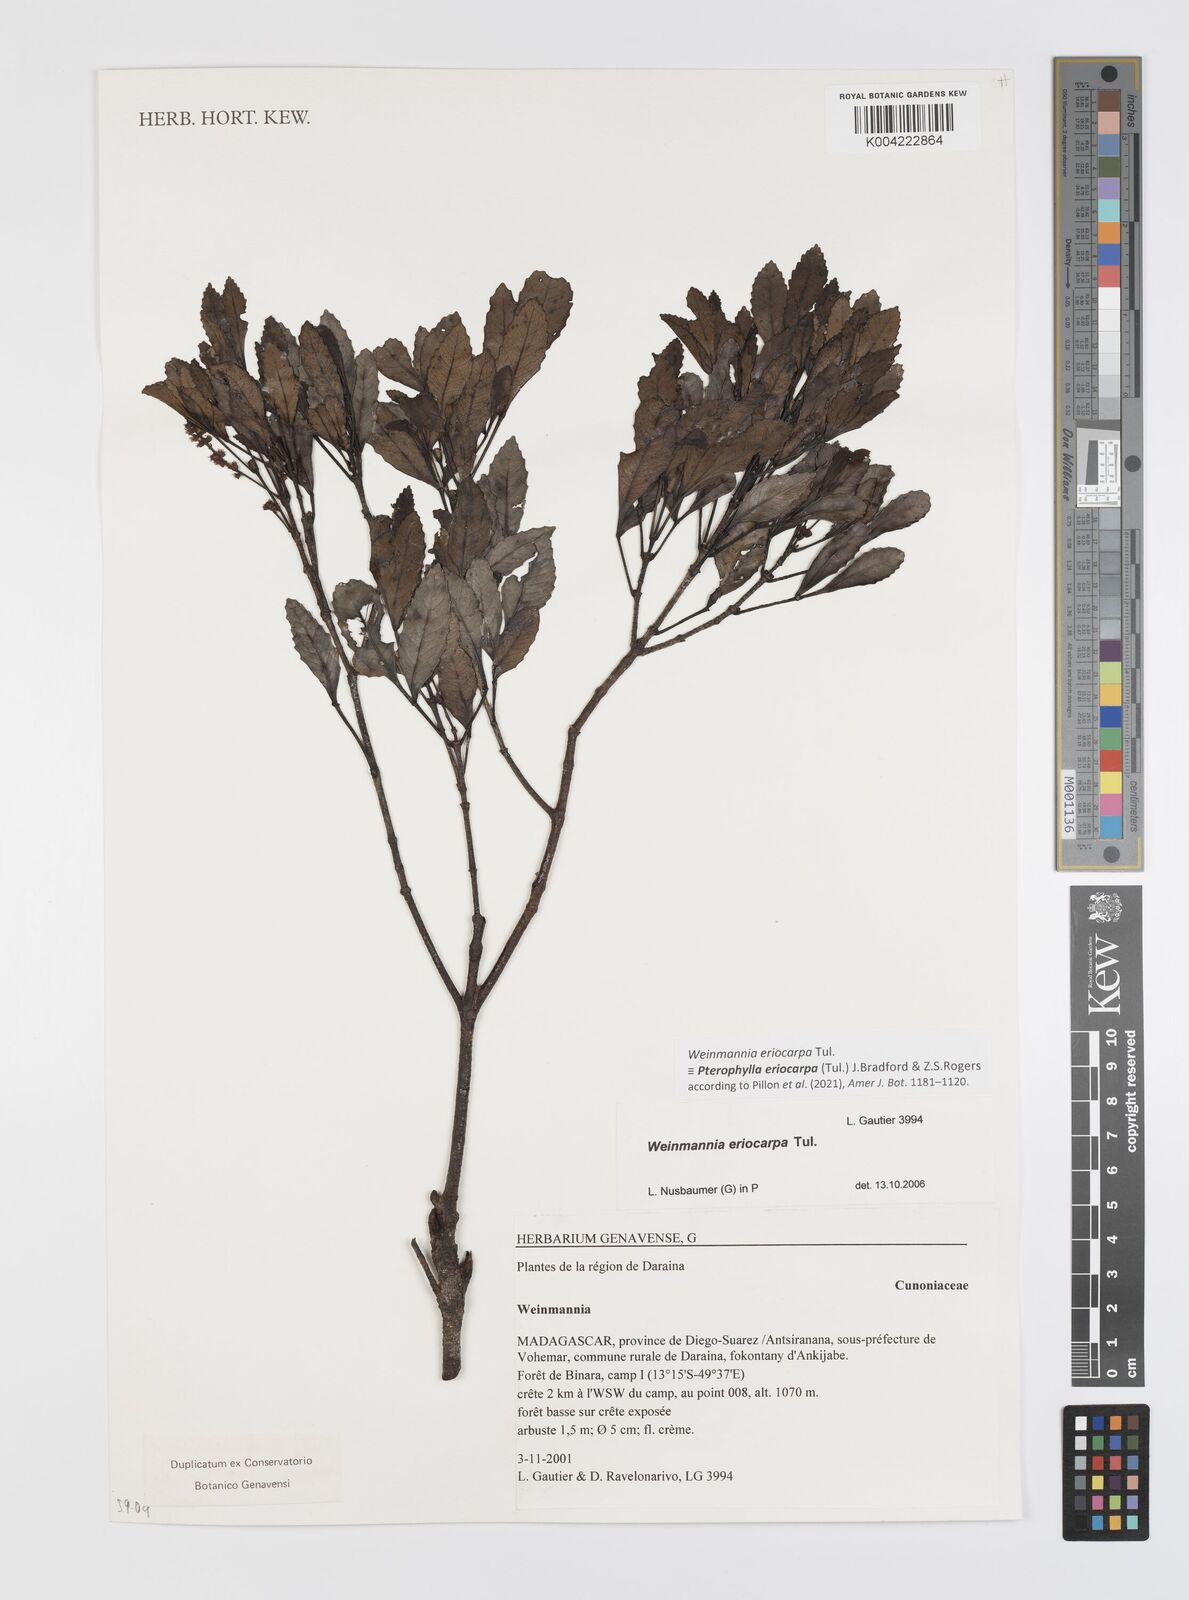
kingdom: Plantae
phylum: Tracheophyta
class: Magnoliopsida
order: Oxalidales
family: Cunoniaceae
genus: Pterophylla
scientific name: Pterophylla eriocarpa
